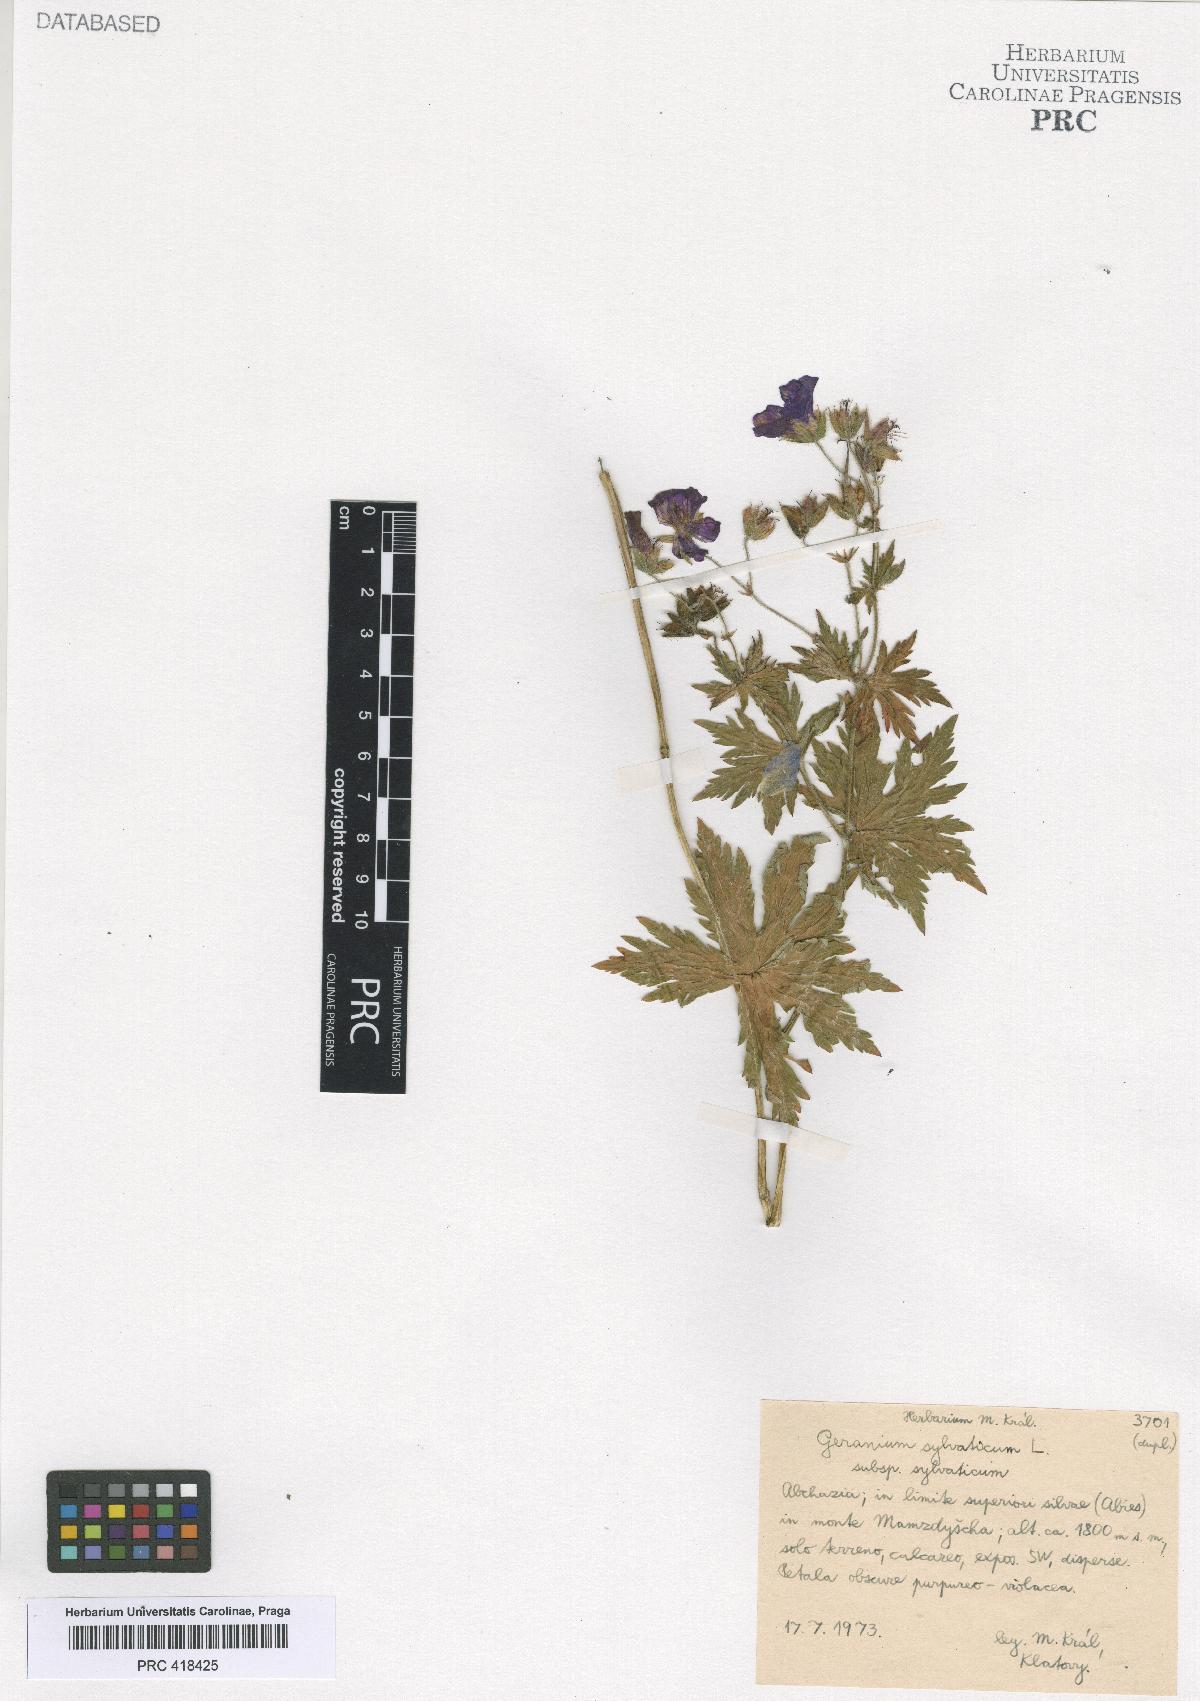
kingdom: Plantae
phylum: Tracheophyta
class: Magnoliopsida
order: Geraniales
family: Geraniaceae
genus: Geranium
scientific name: Geranium sylvaticum
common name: Wood crane's-bill
